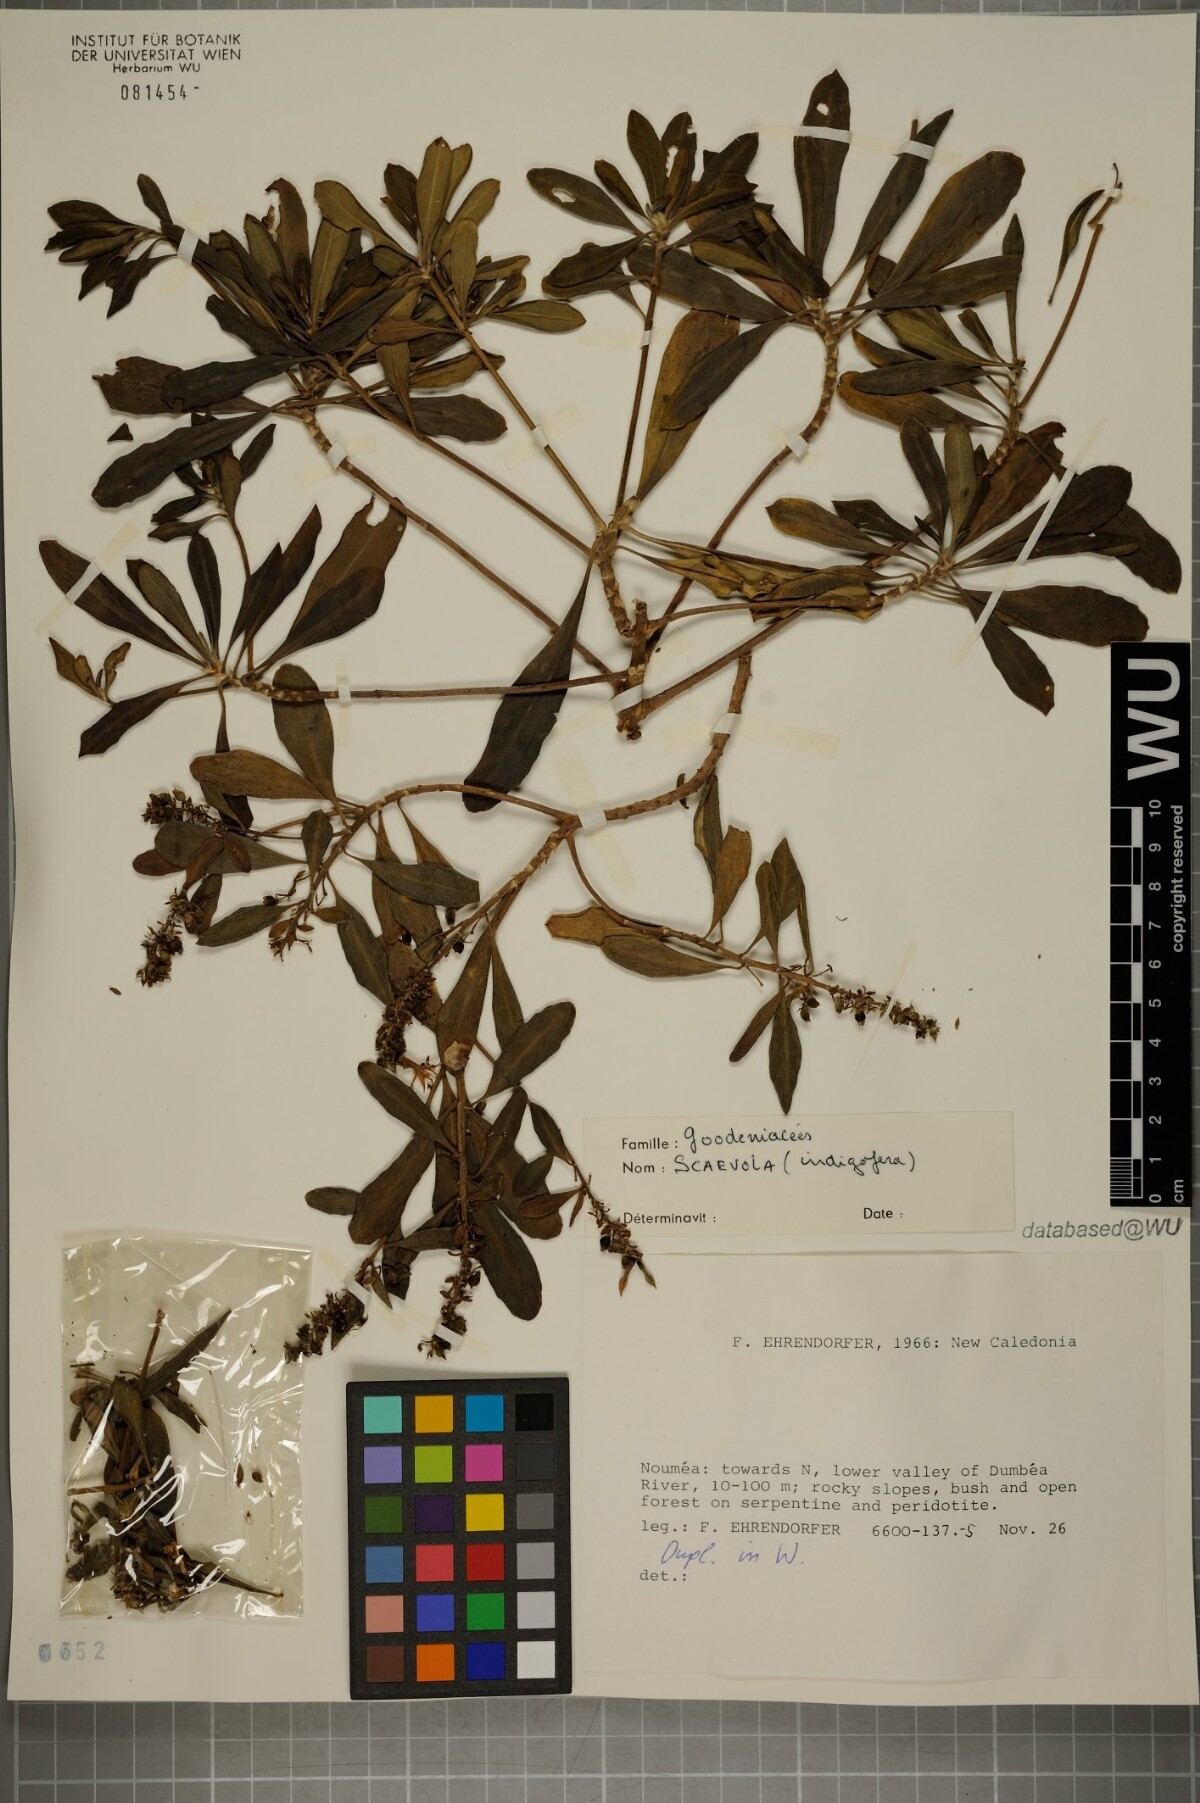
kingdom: Plantae
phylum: Tracheophyta
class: Magnoliopsida
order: Asterales
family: Goodeniaceae
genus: Scaevola
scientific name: Scaevola montana
